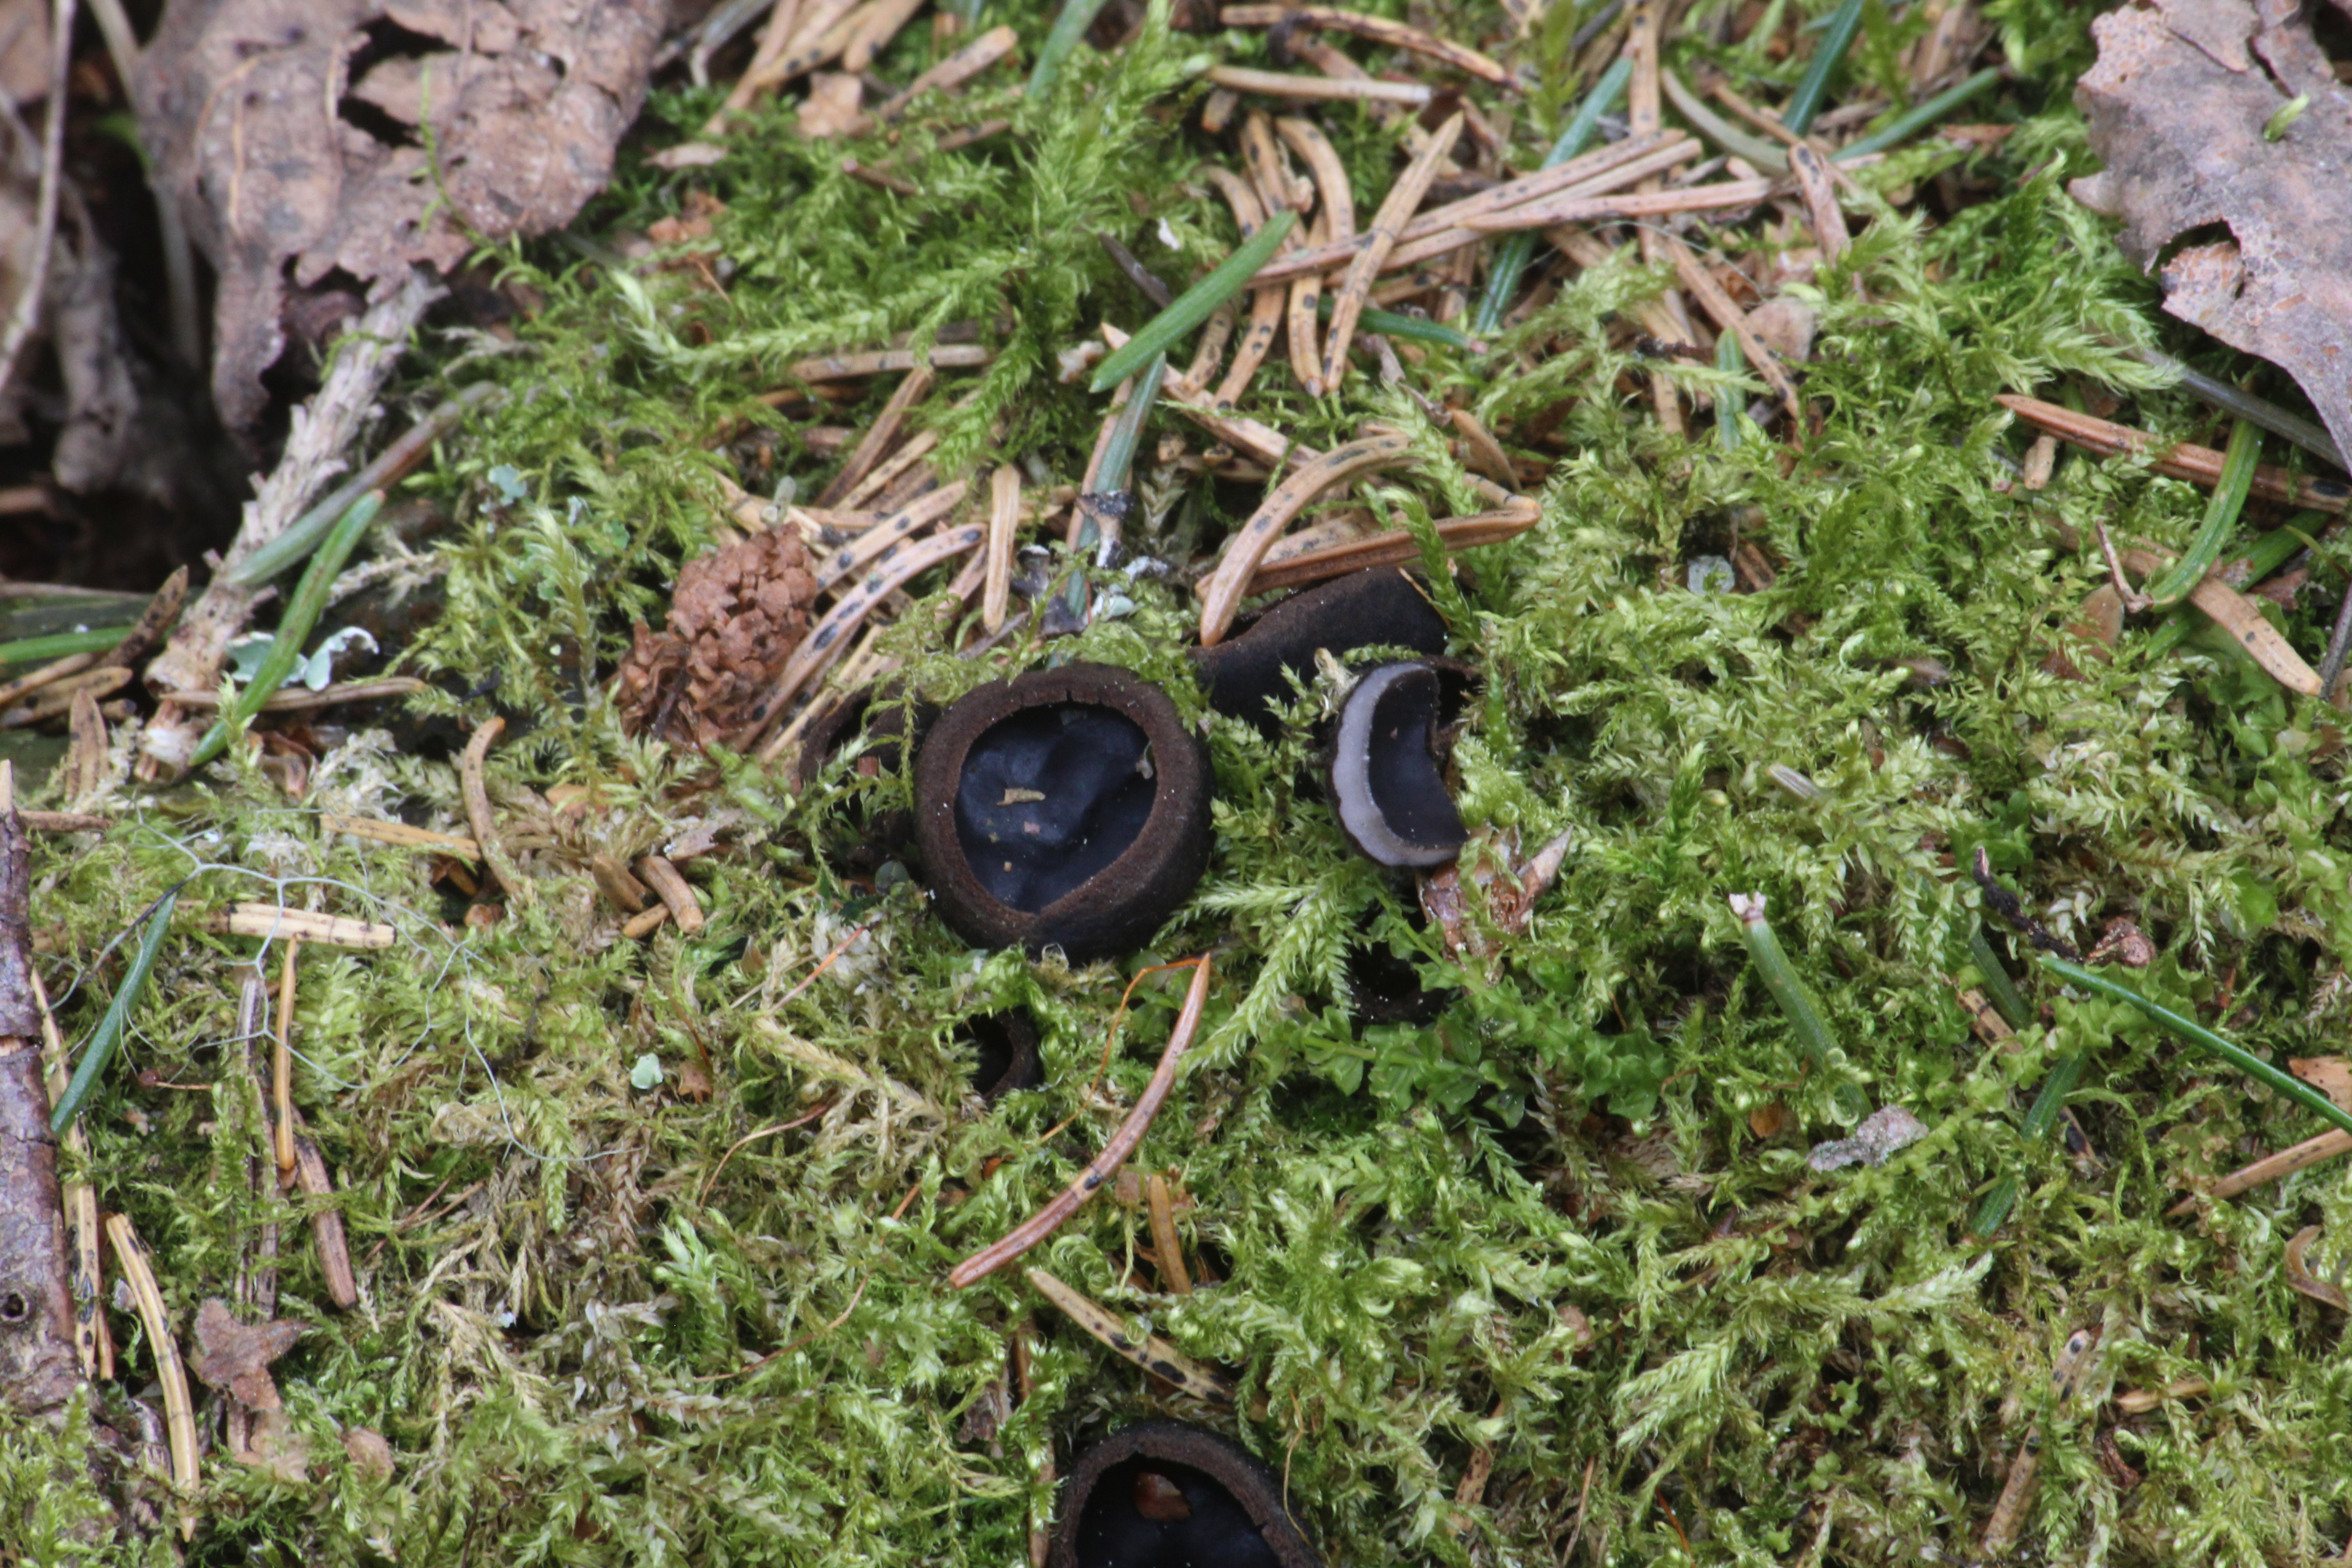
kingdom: Fungi
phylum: Ascomycota
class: Pezizomycetes
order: Pezizales
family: Sarcosomataceae
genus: Pseudoplectania
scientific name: Pseudoplectania nigrella
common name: Ebony cup
